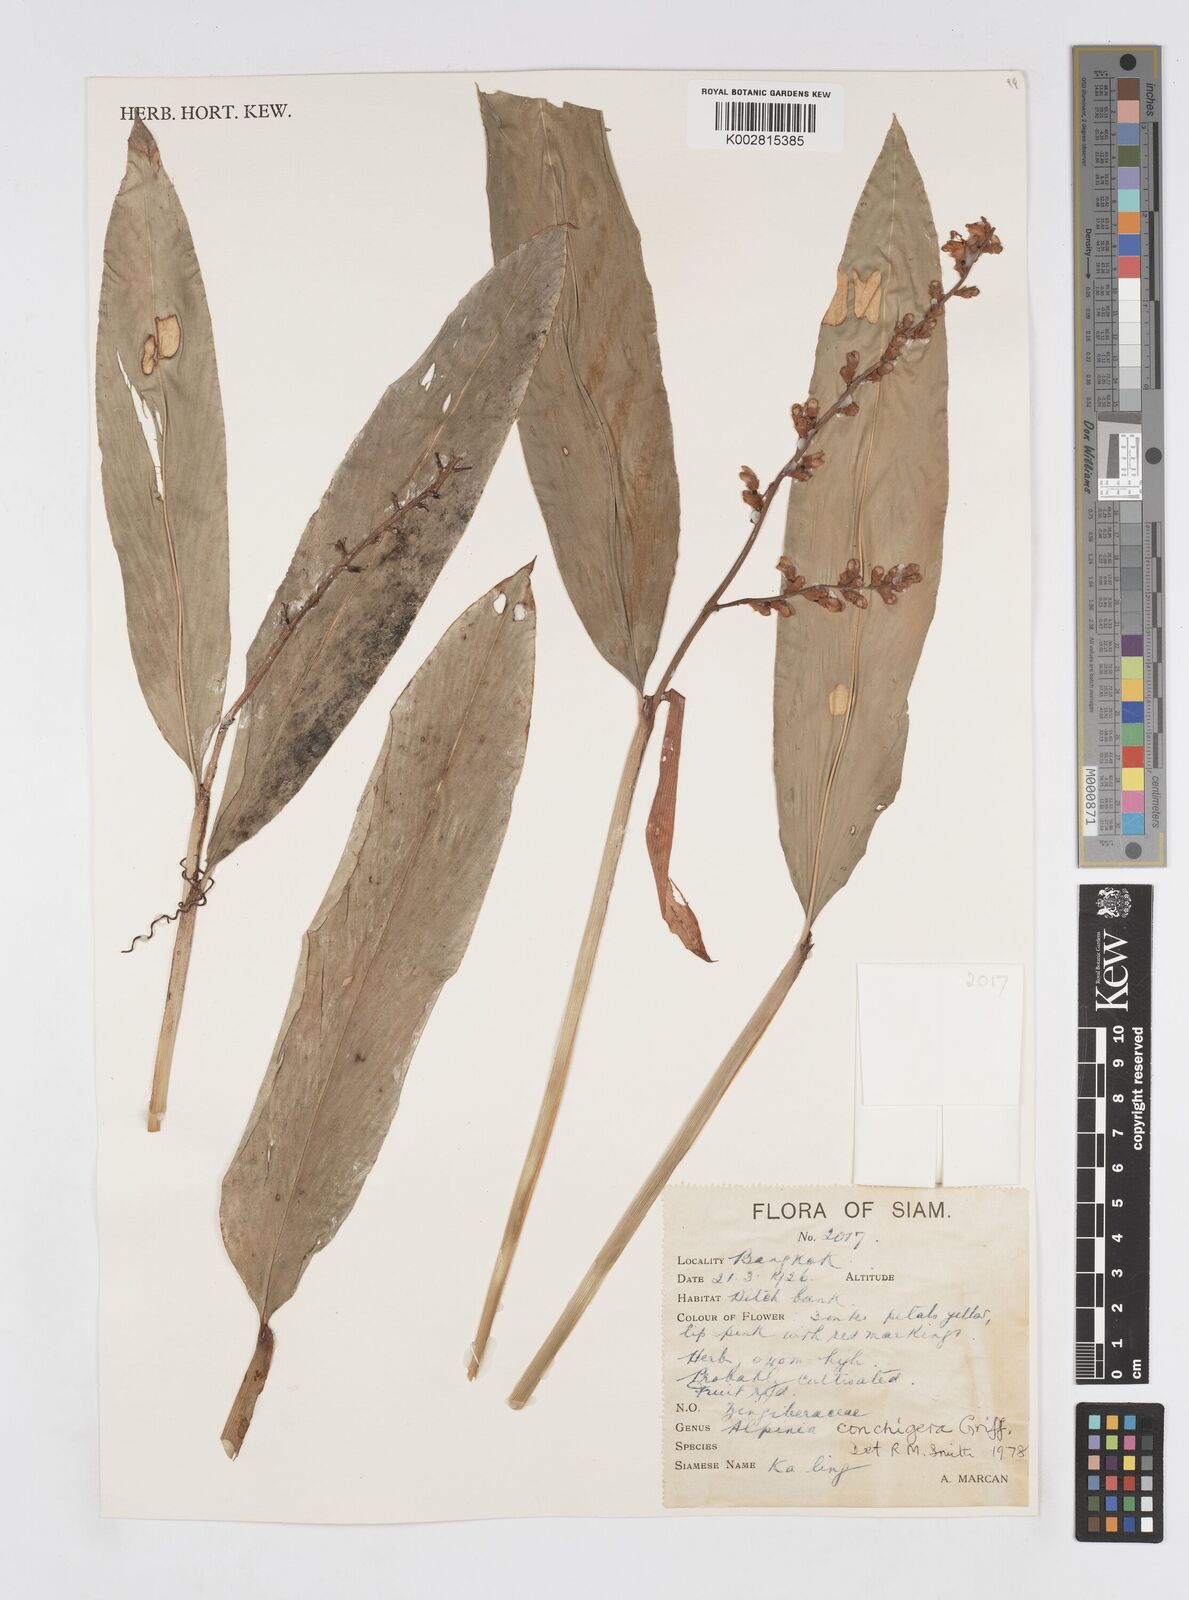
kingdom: Plantae
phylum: Tracheophyta
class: Liliopsida
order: Zingiberales
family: Zingiberaceae
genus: Alpinia
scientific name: Alpinia conchigera
